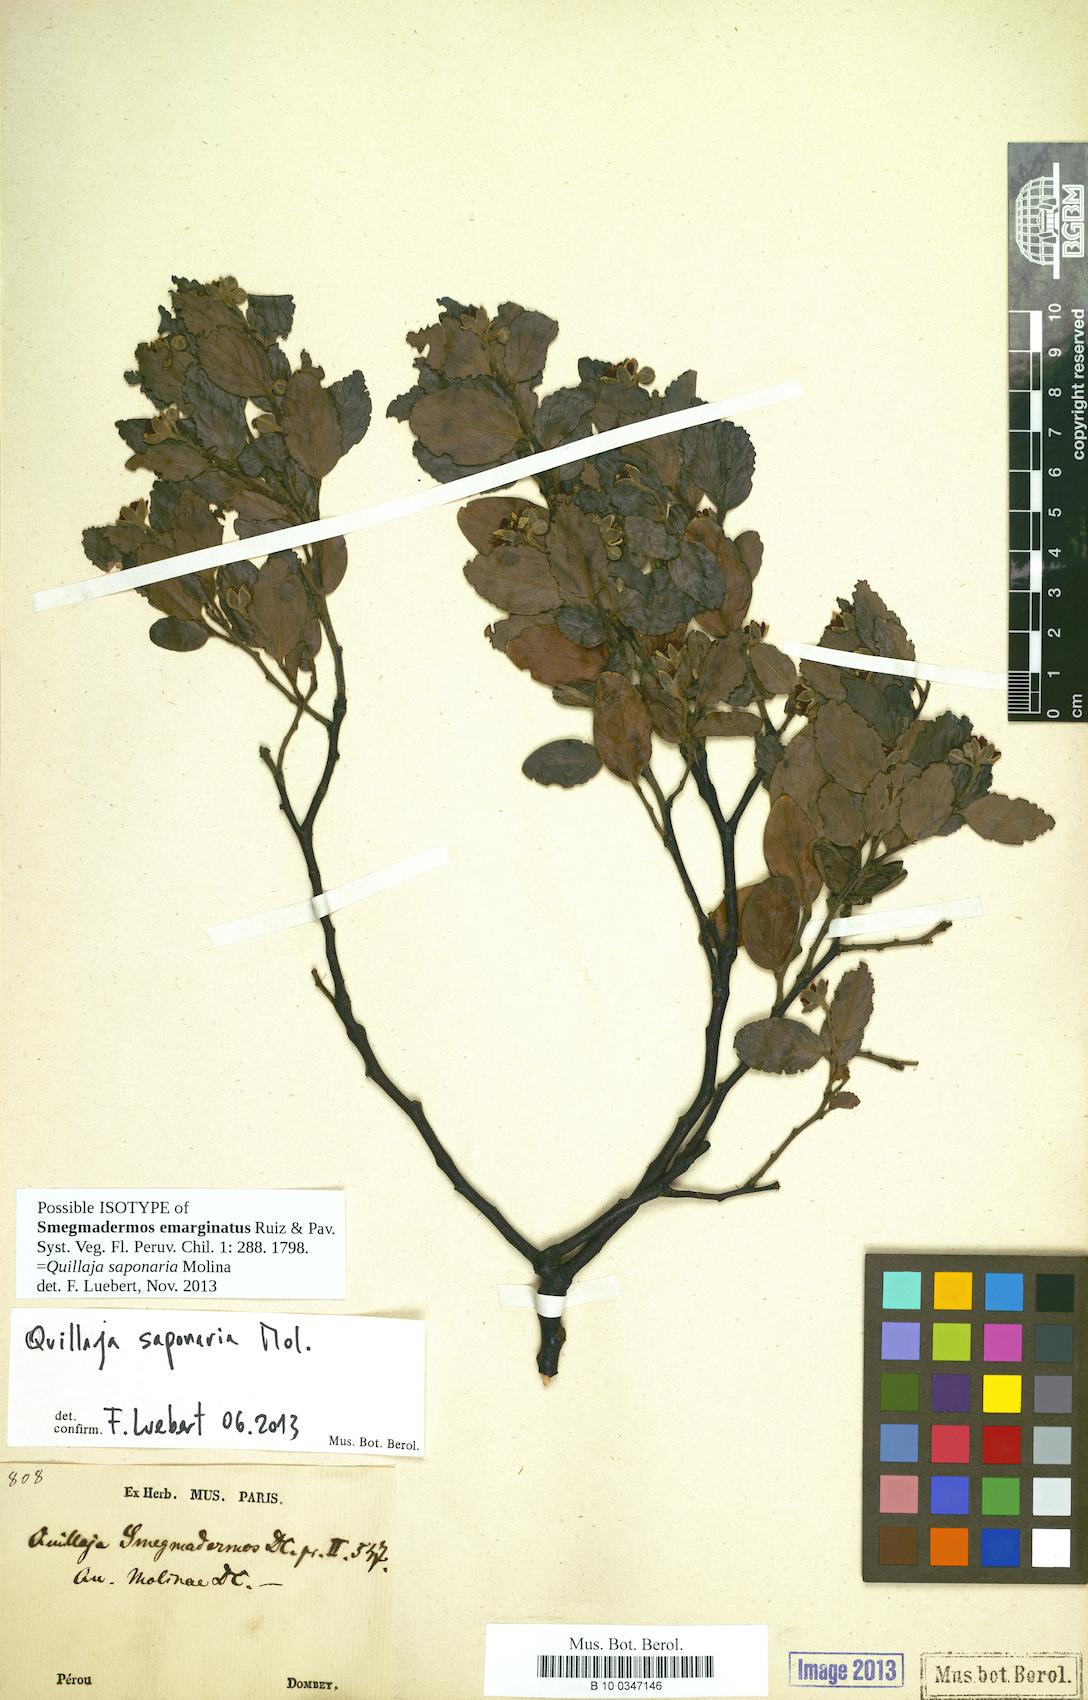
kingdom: Plantae
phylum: Tracheophyta
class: Magnoliopsida
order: Fabales
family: Quillajaceae
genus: Quillaja
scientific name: Quillaja saponaria
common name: Murillo's-bark
